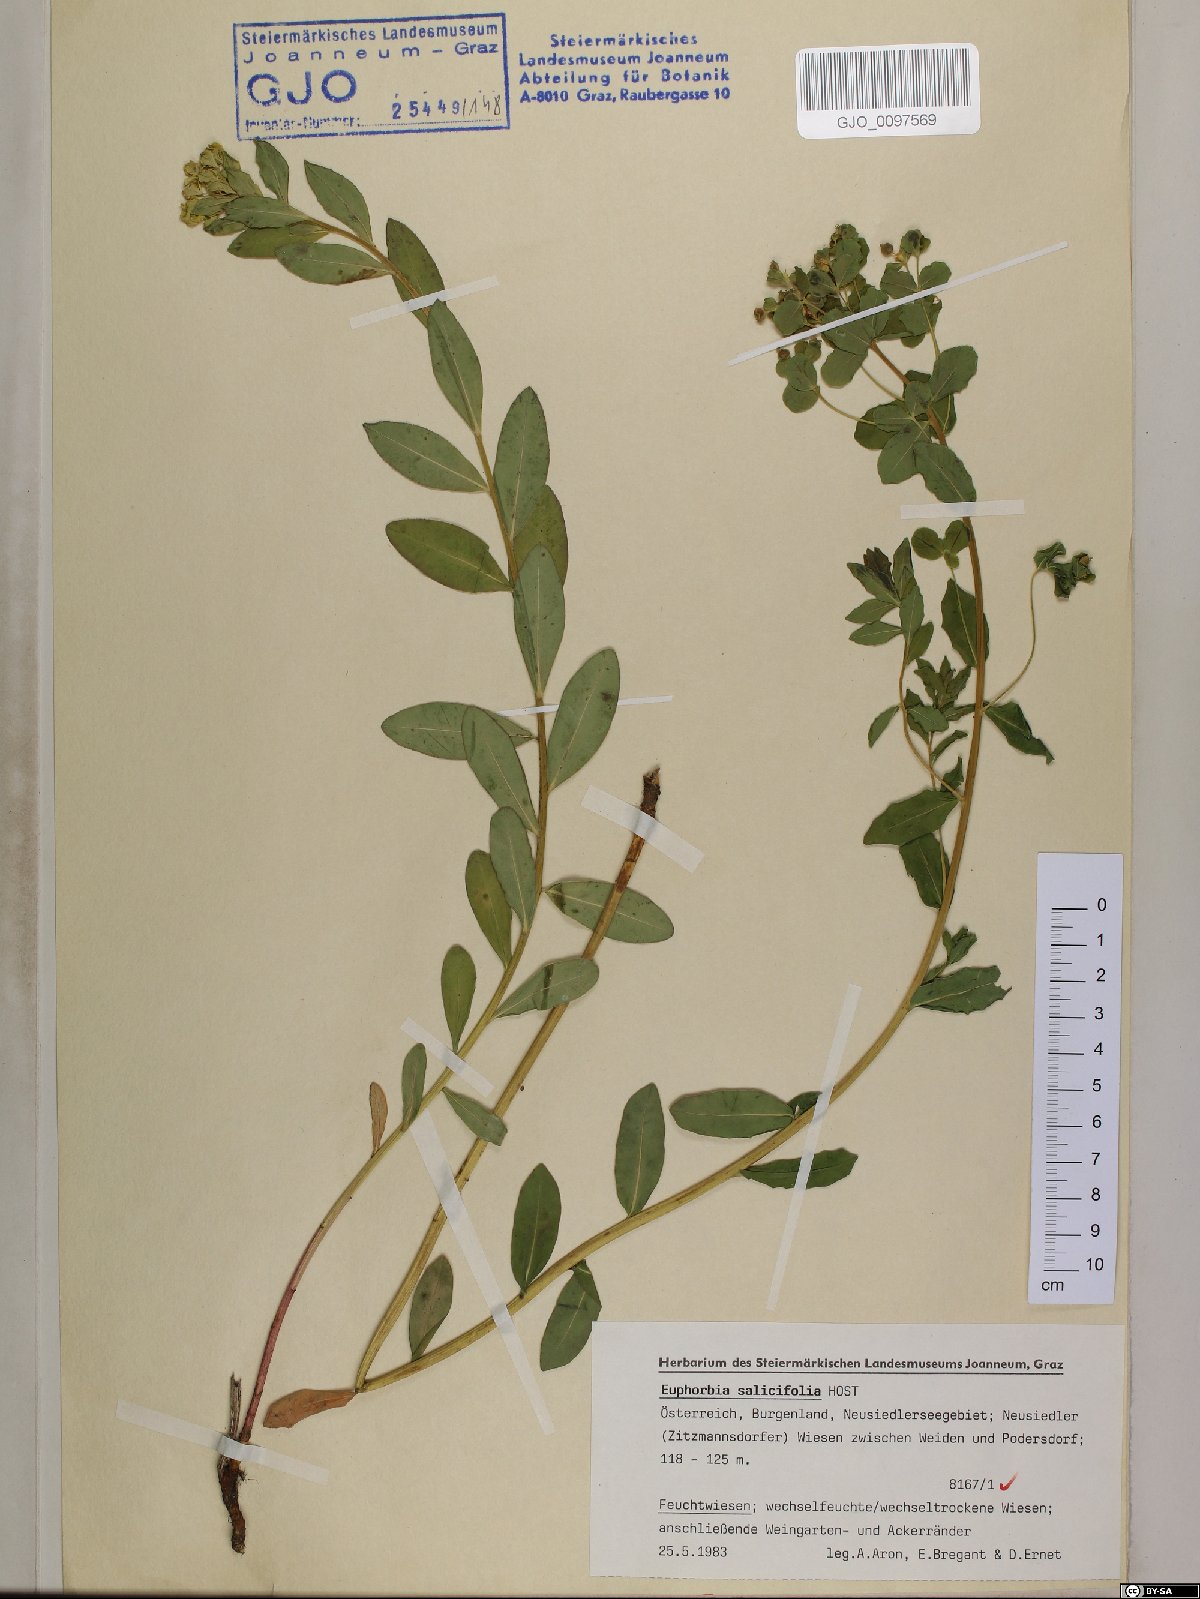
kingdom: Plantae
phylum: Tracheophyta
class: Magnoliopsida
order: Malpighiales
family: Euphorbiaceae
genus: Euphorbia
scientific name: Euphorbia salicifolia
